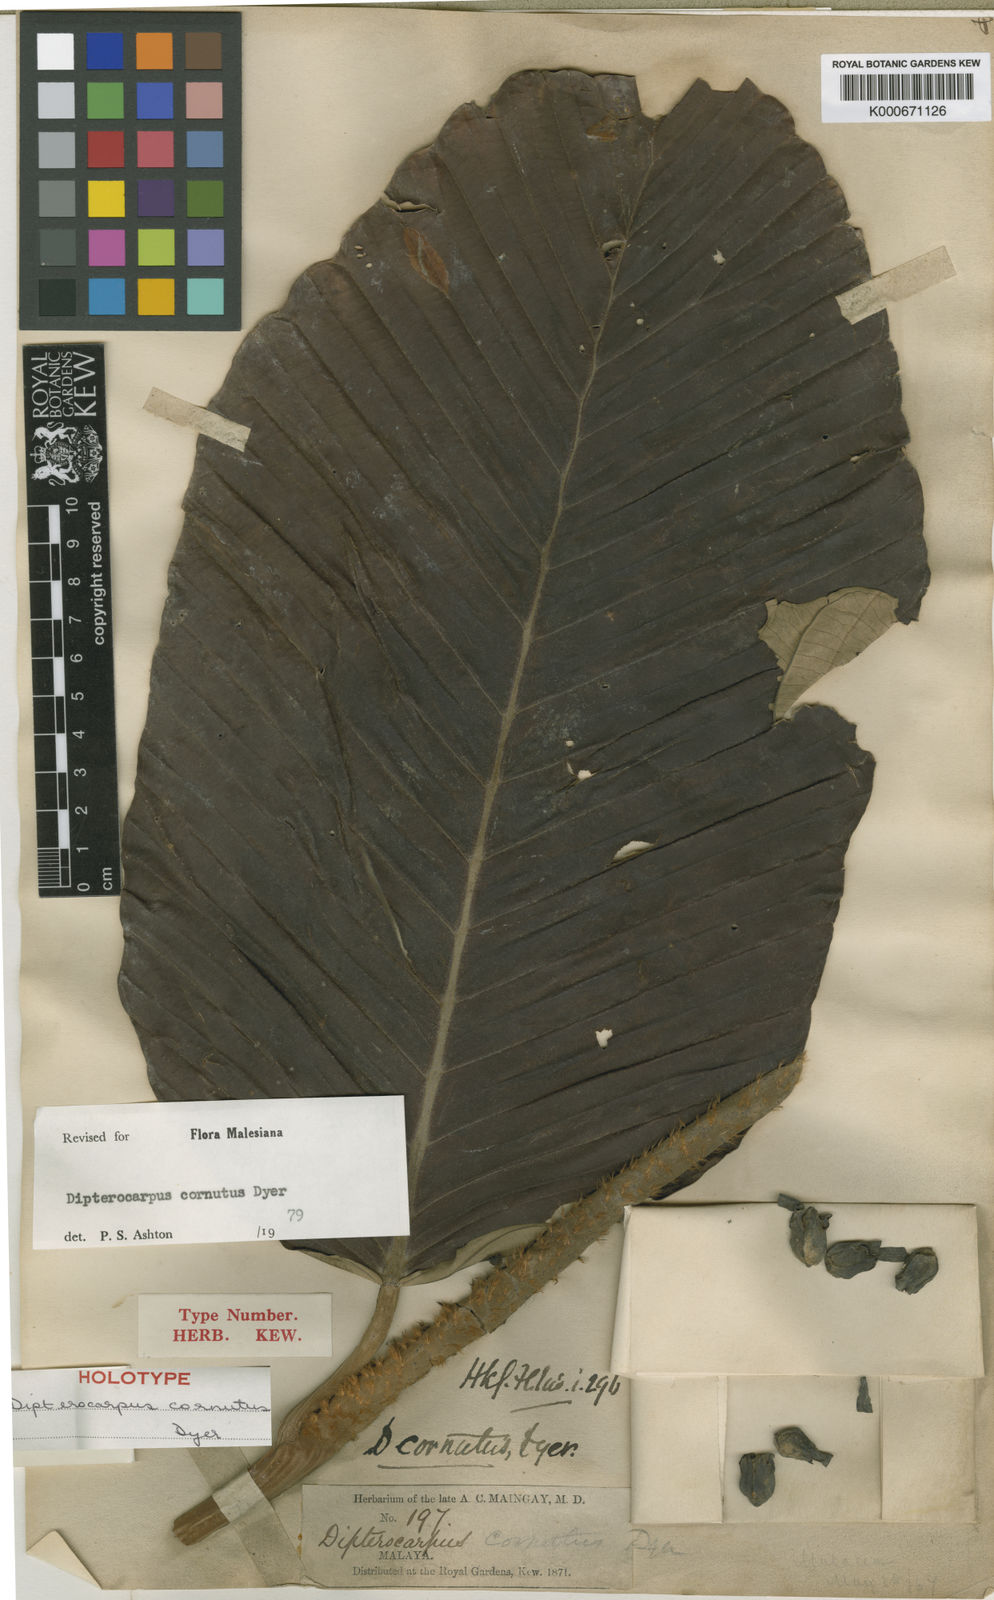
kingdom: Plantae
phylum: Tracheophyta
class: Magnoliopsida
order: Malvales
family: Dipterocarpaceae
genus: Dipterocarpus
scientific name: Dipterocarpus cornutus
